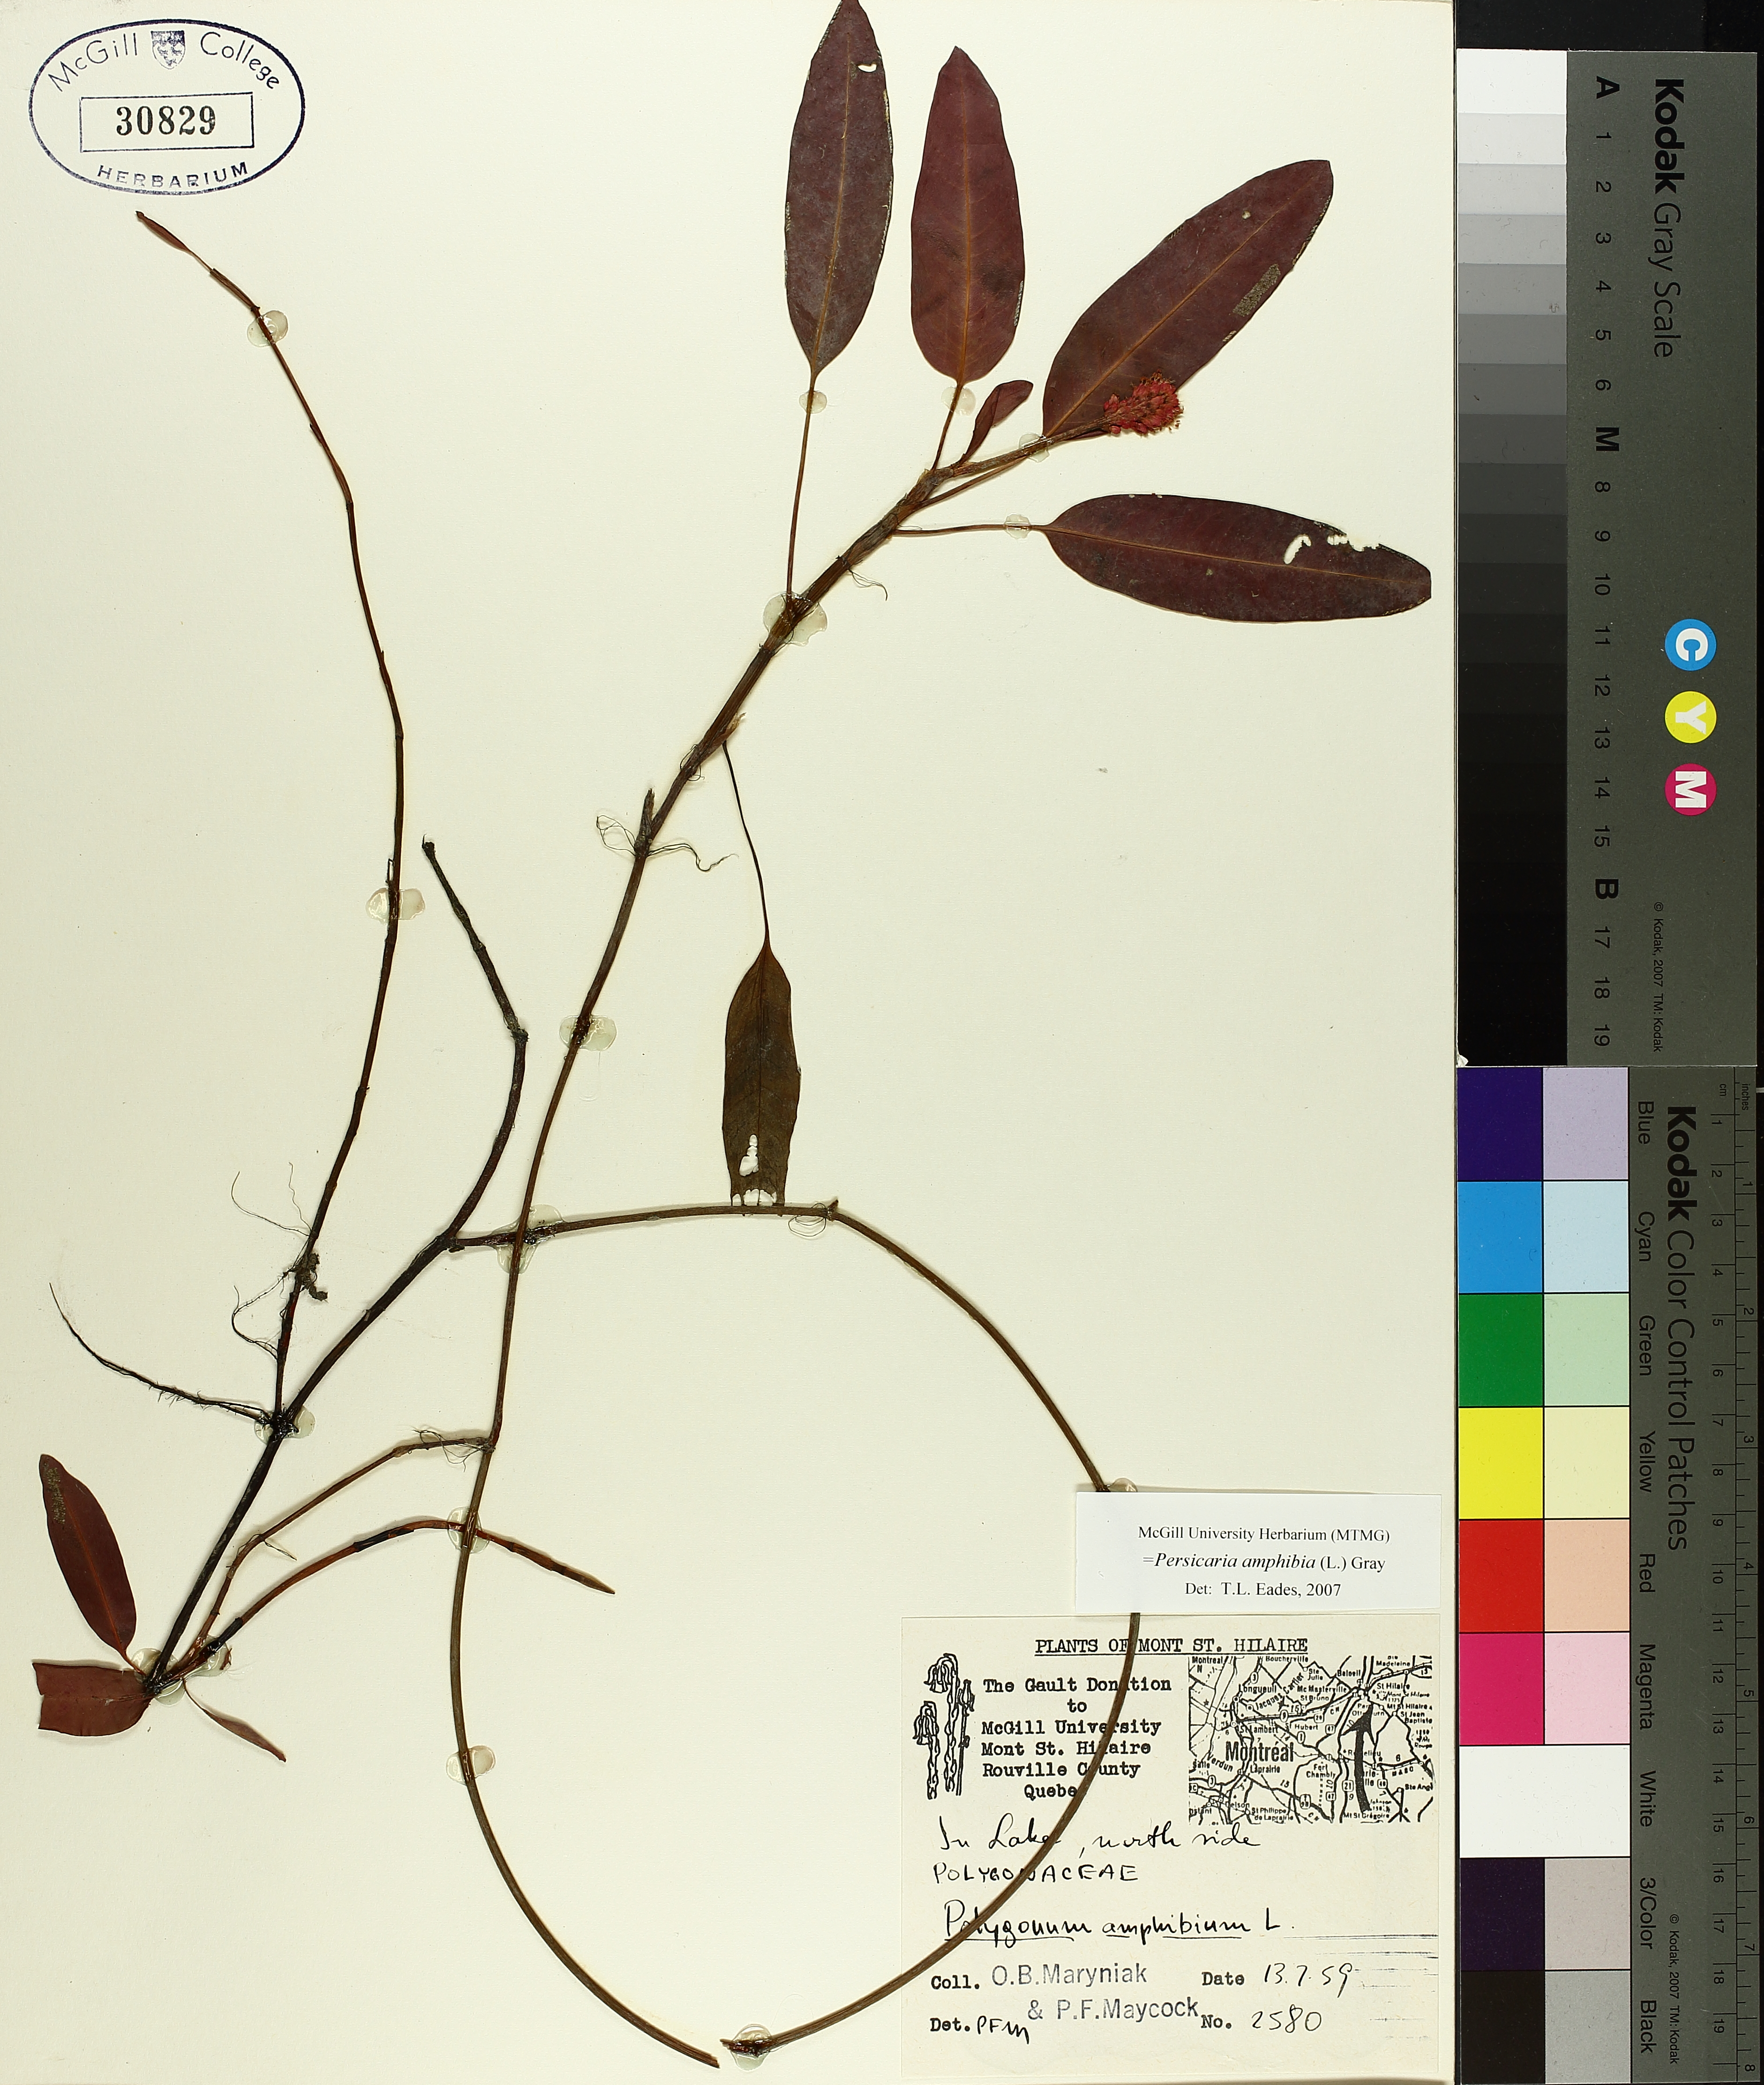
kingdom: Plantae
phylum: Tracheophyta
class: Magnoliopsida
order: Caryophyllales
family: Polygonaceae
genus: Persicaria
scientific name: Persicaria amphibia
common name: Amphibious bistort
